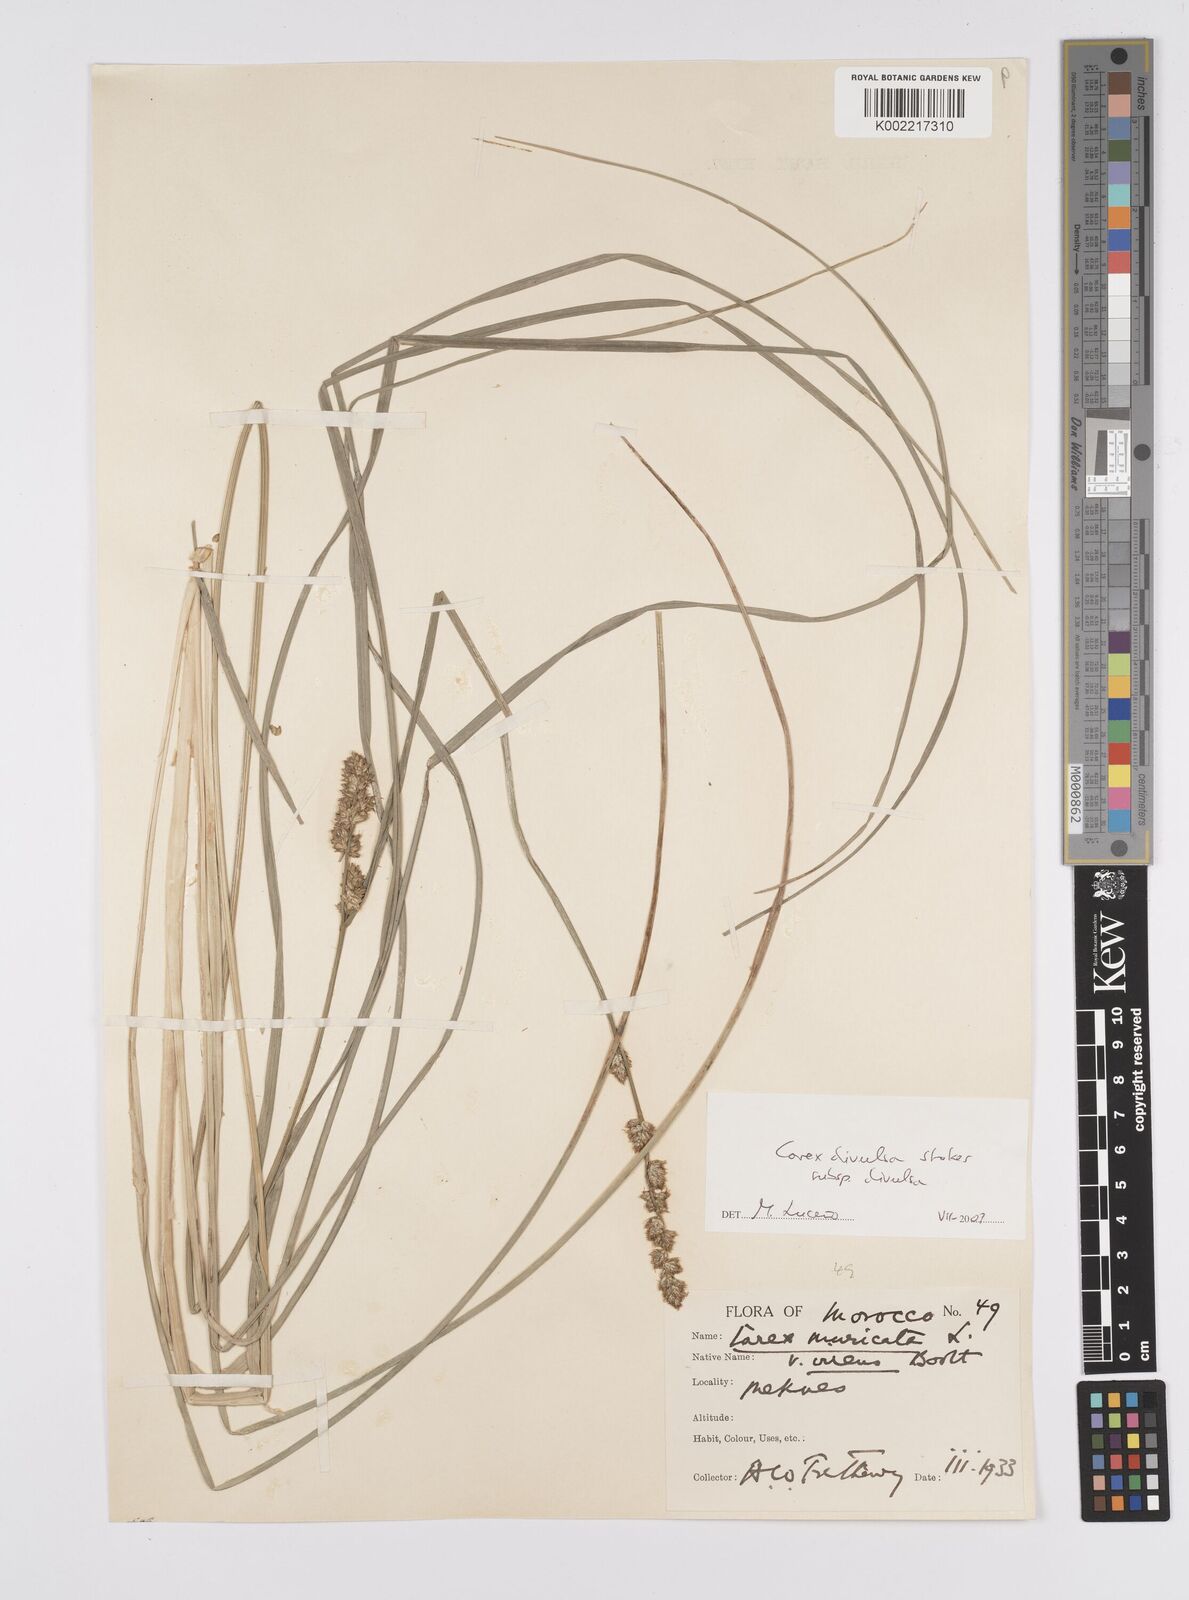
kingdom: Plantae
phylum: Tracheophyta
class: Liliopsida
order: Poales
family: Cyperaceae
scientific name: Cyperaceae
